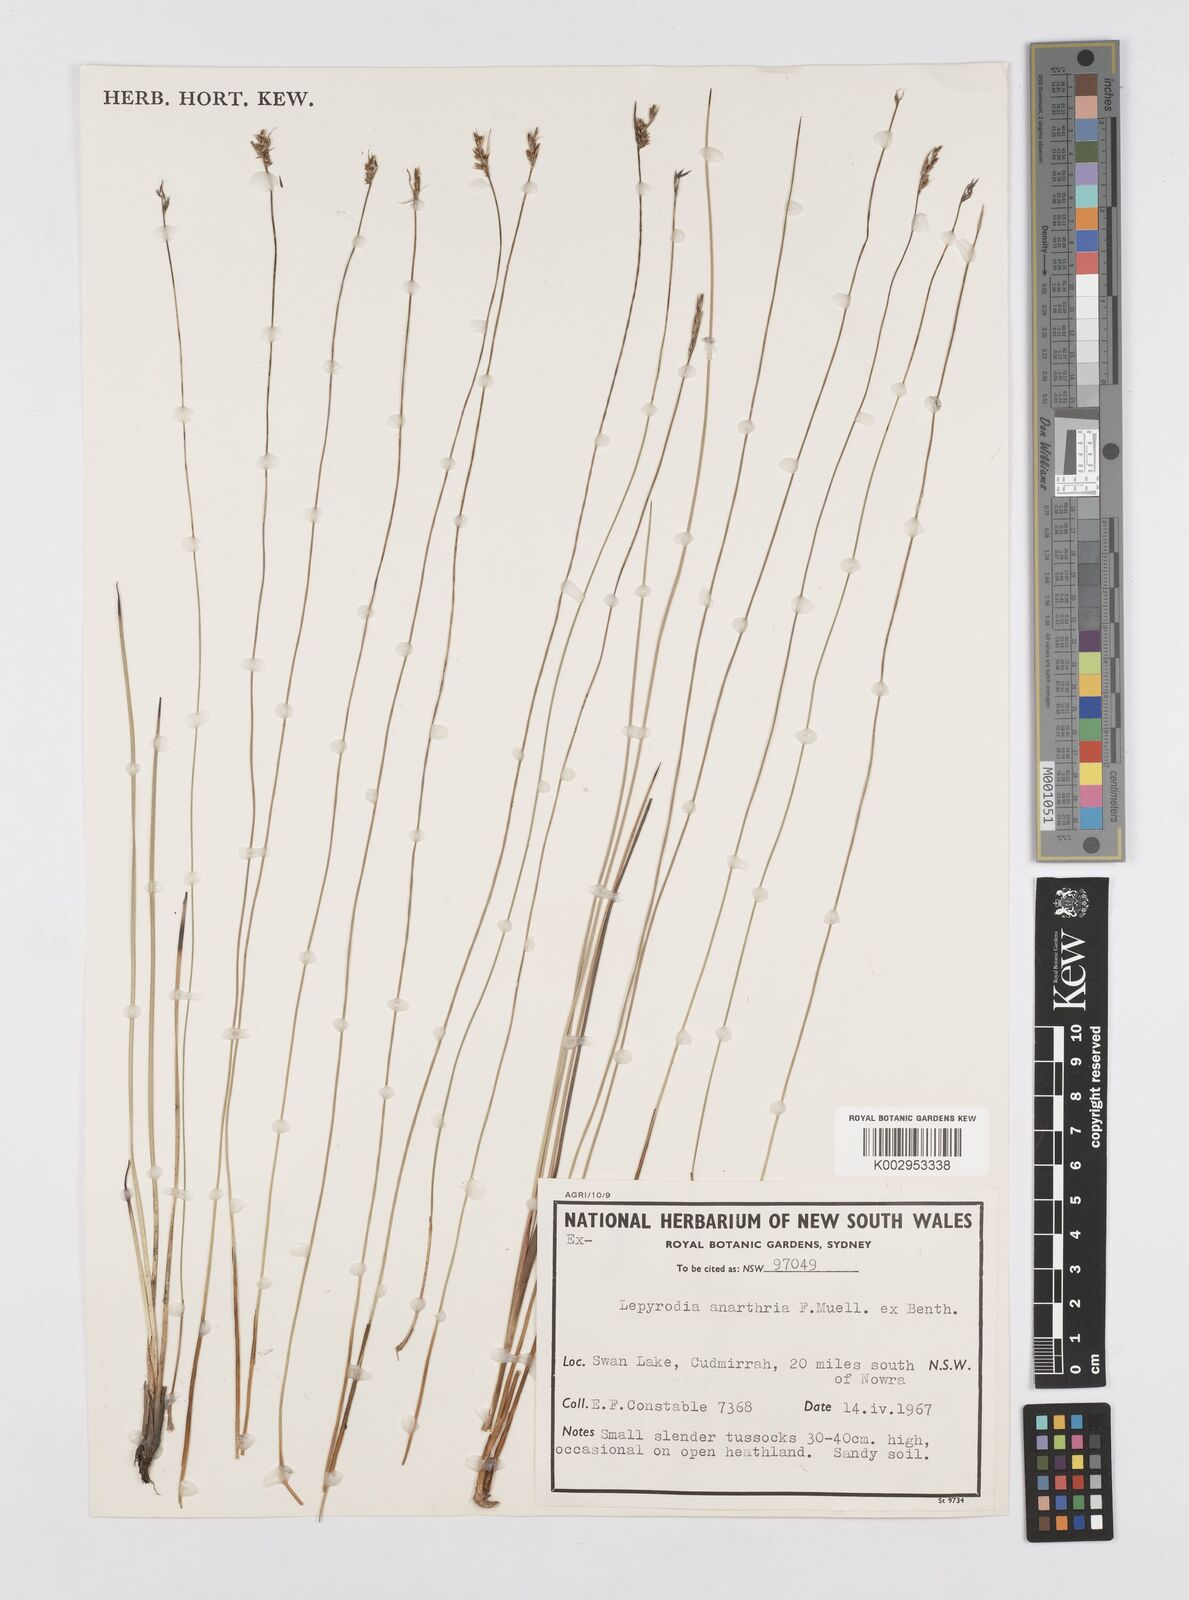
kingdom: Plantae
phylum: Tracheophyta
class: Liliopsida
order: Poales
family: Restionaceae
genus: Lepyrodia
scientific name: Lepyrodia anarthria
